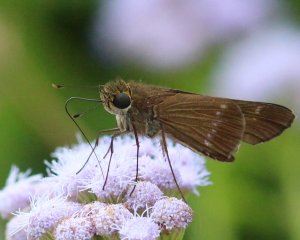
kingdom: Animalia
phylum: Arthropoda
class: Insecta
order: Lepidoptera
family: Hesperiidae
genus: Turesis
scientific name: Turesis lucas
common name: Purple-washed Skipper
